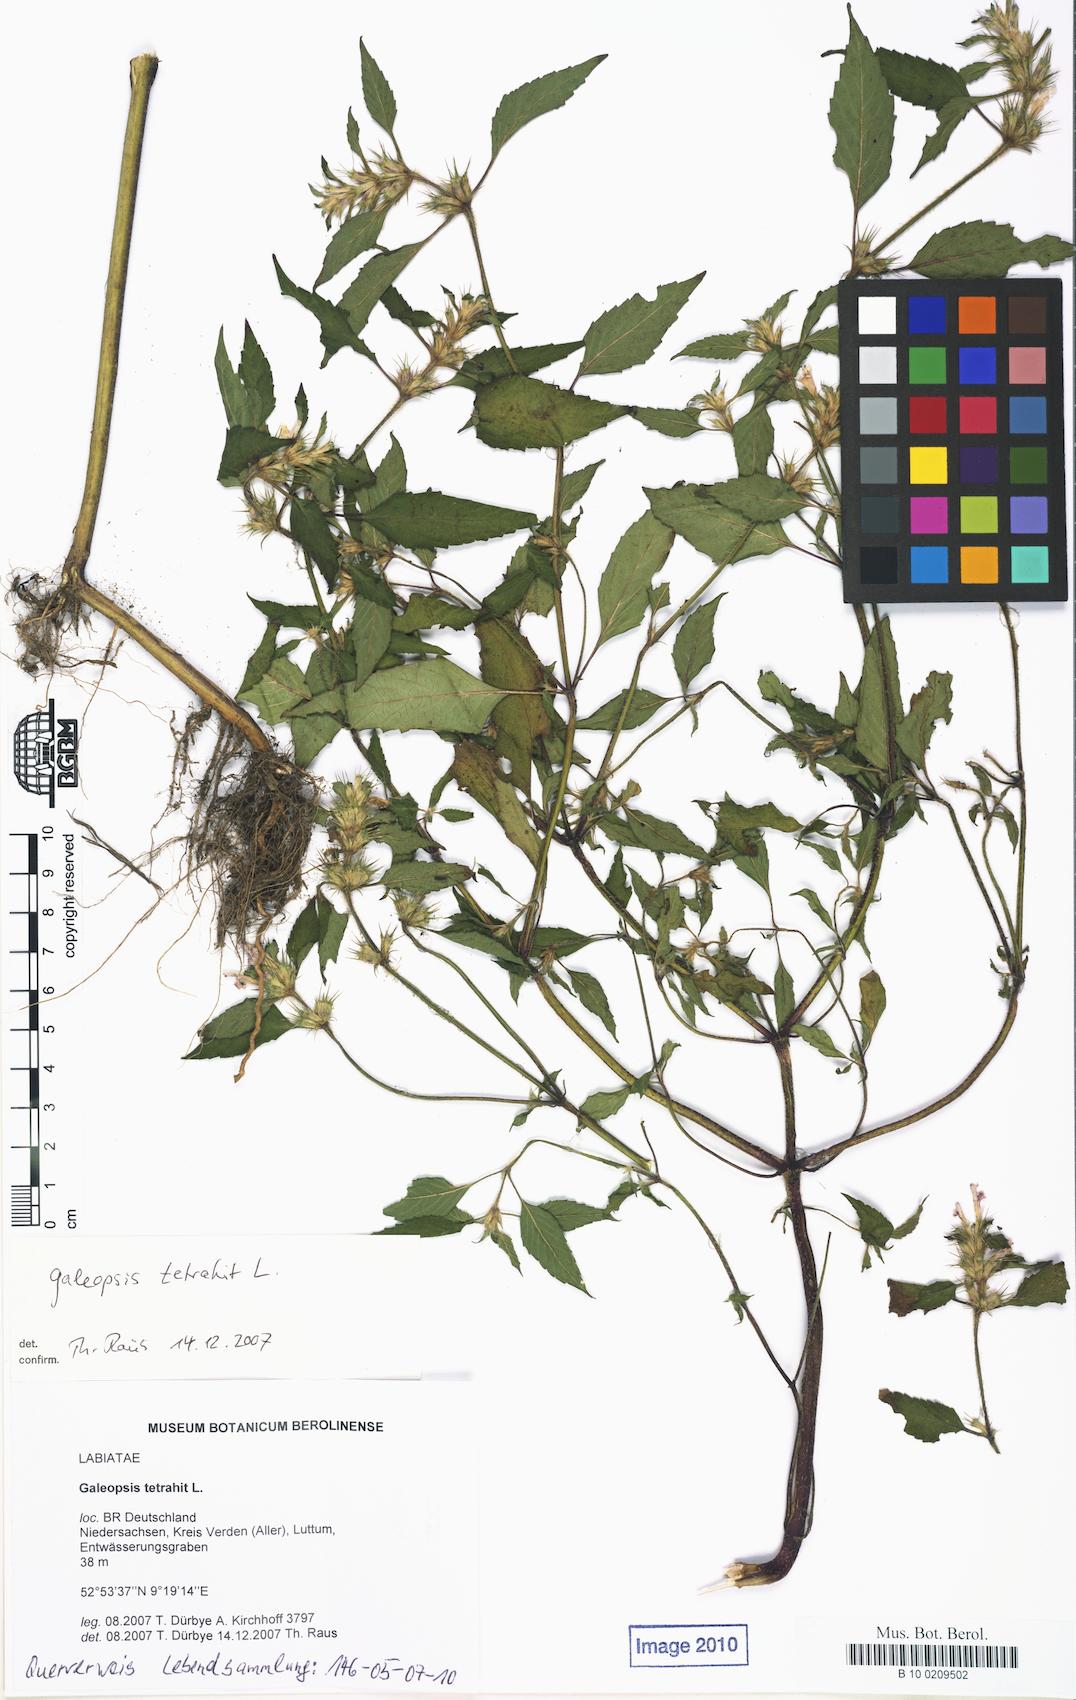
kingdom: Plantae
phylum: Tracheophyta
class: Magnoliopsida
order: Lamiales
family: Lamiaceae
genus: Galeopsis
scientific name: Galeopsis tetrahit
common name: Common hemp-nettle
